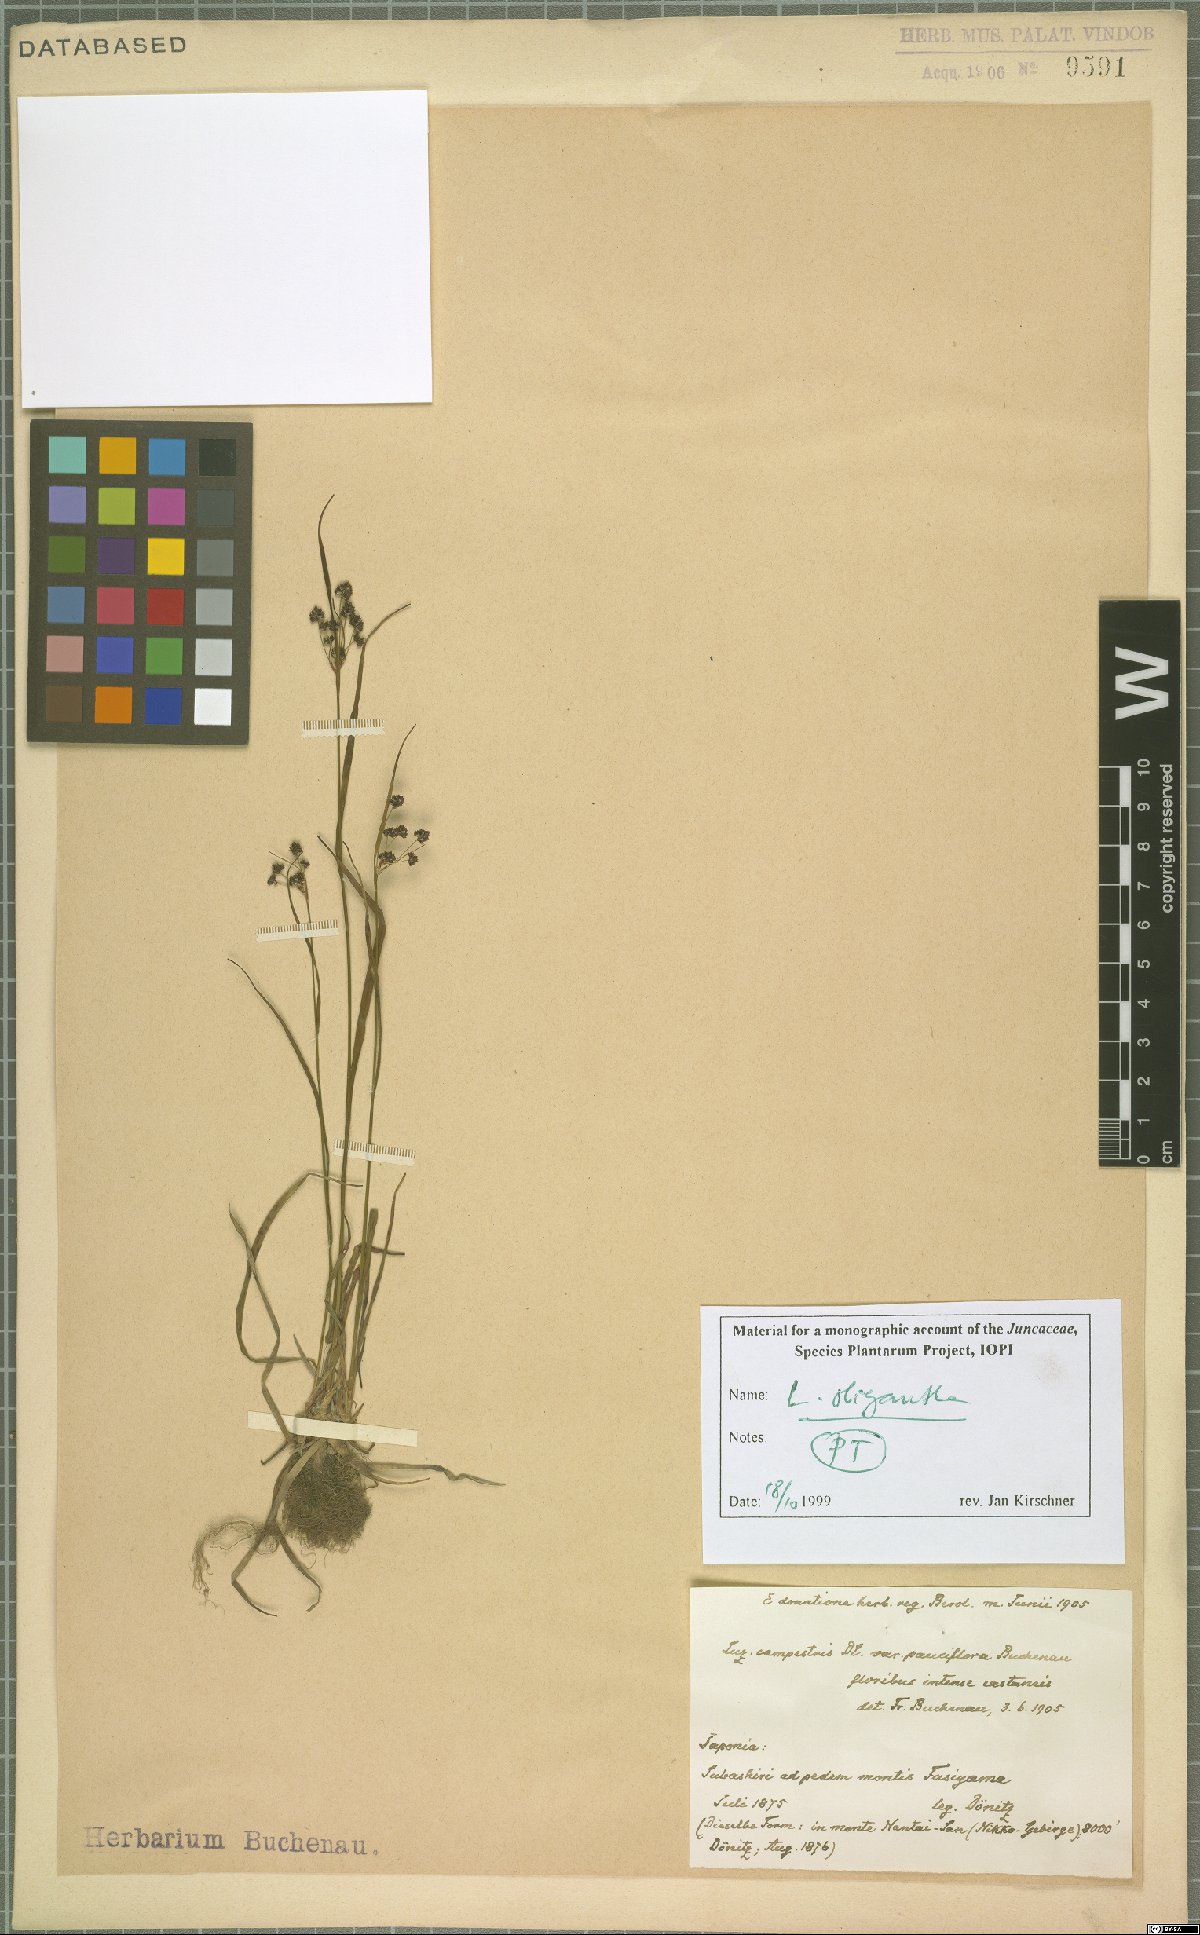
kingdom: Plantae
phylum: Tracheophyta
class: Liliopsida
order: Poales
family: Juncaceae
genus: Luzula
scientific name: Luzula oligantha
